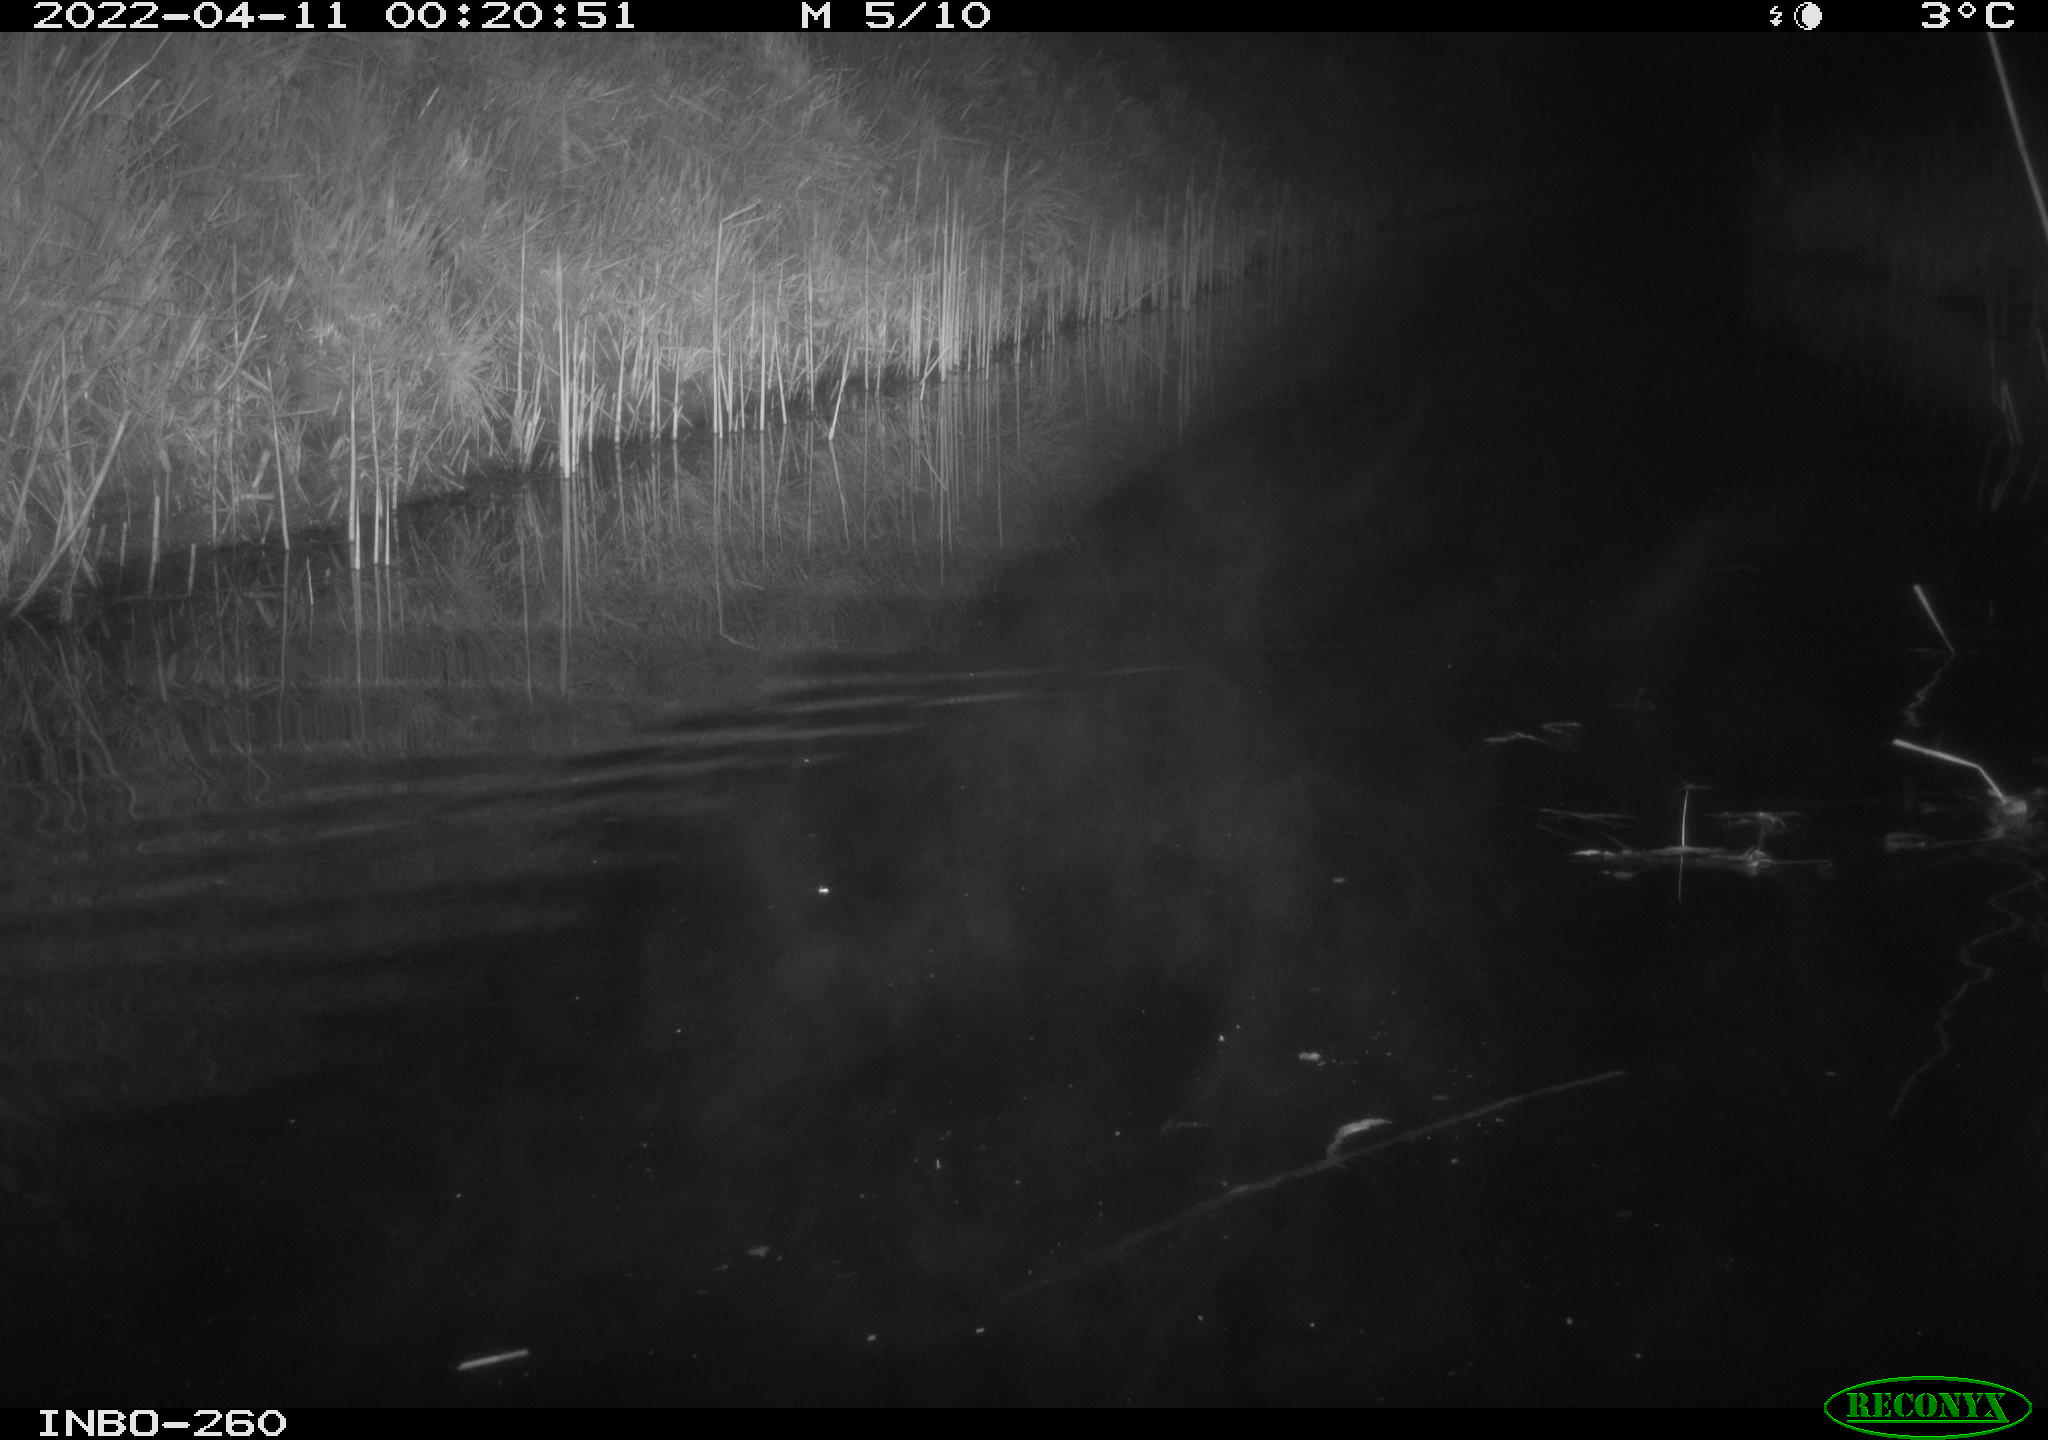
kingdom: Animalia
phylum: Chordata
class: Mammalia
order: Rodentia
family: Muridae
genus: Rattus
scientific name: Rattus norvegicus
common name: Brown rat
